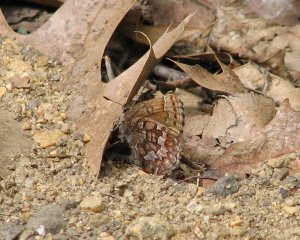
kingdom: Animalia
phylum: Arthropoda
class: Insecta
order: Lepidoptera
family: Lycaenidae
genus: Incisalia
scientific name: Incisalia niphon
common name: Eastern Pine Elfin
